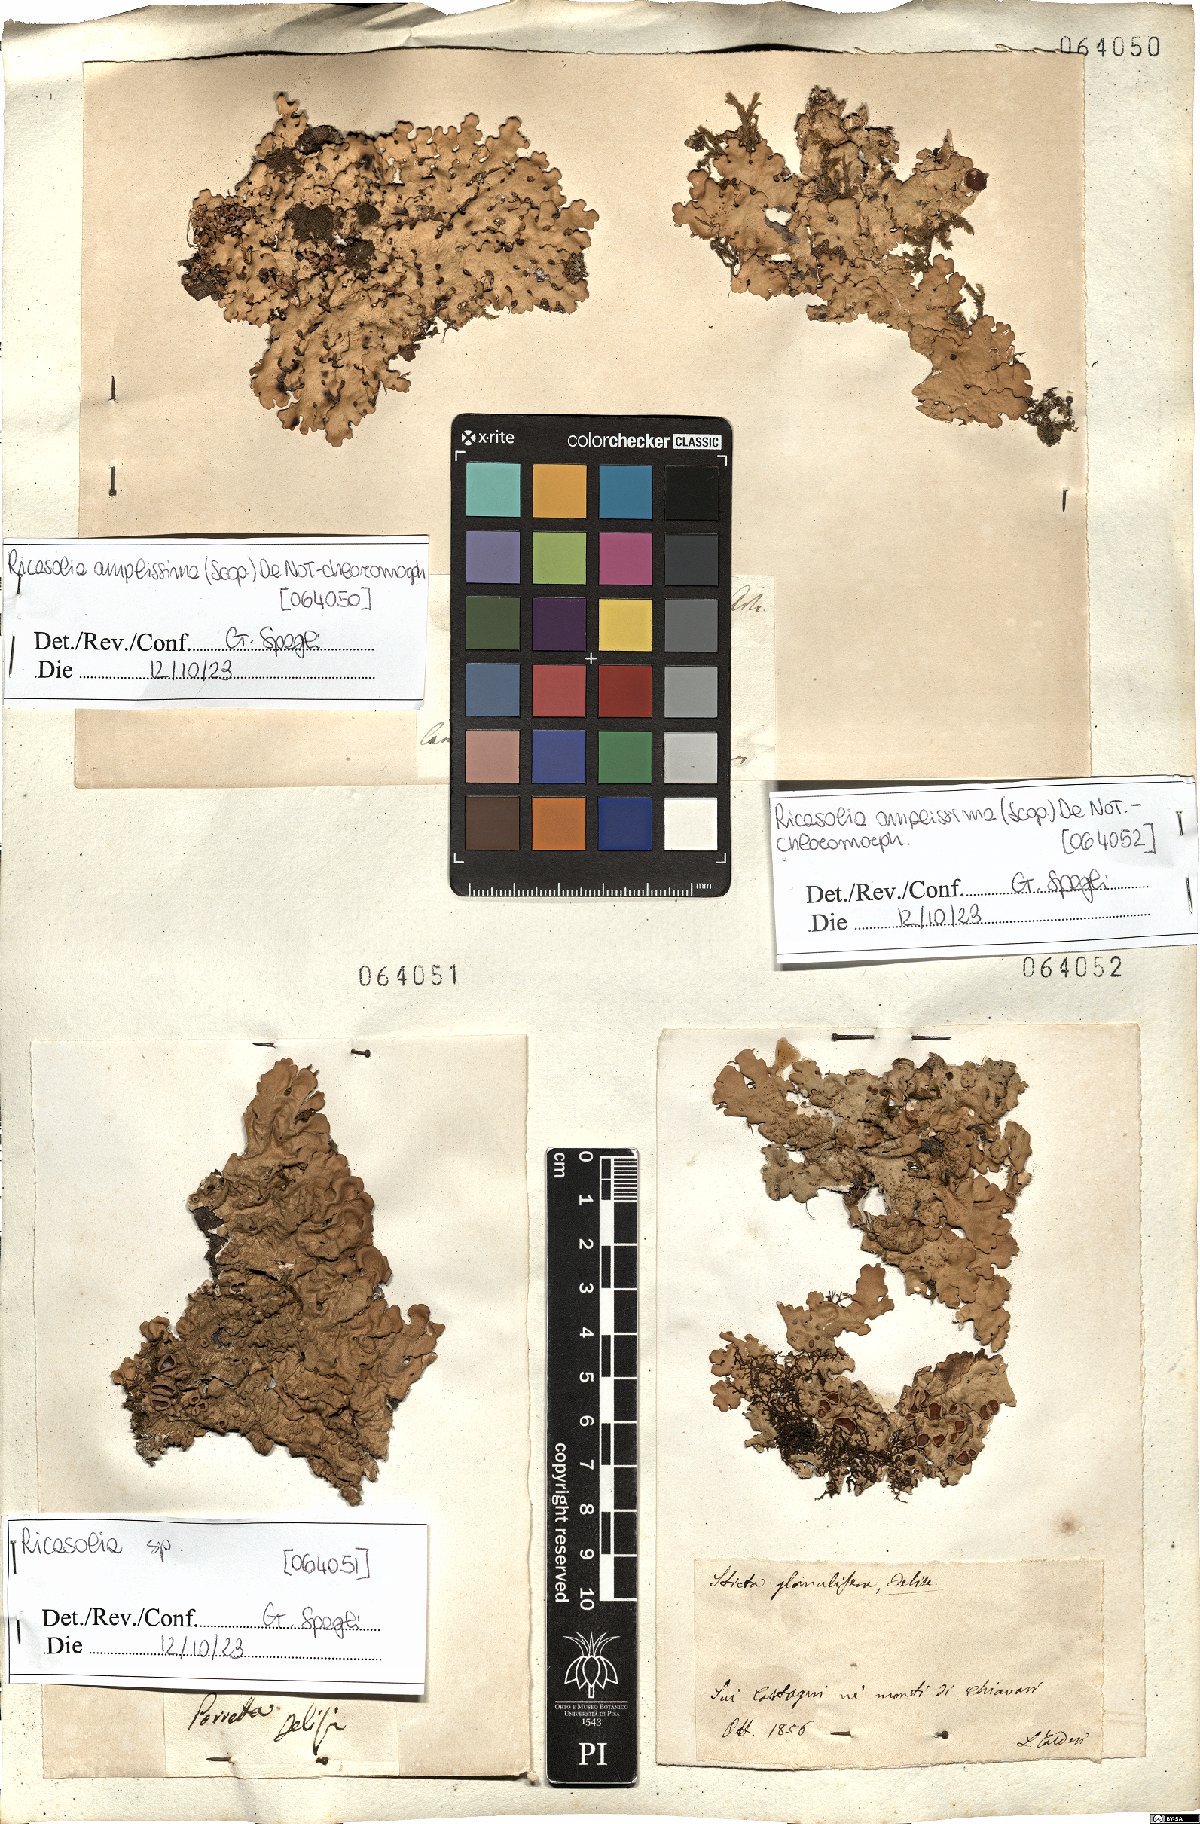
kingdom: Fungi
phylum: Ascomycota
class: Lecanoromycetes
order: Peltigerales
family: Lobariaceae
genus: Ricasolia
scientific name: Ricasolia amplissima
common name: Giant candlewax lichen
